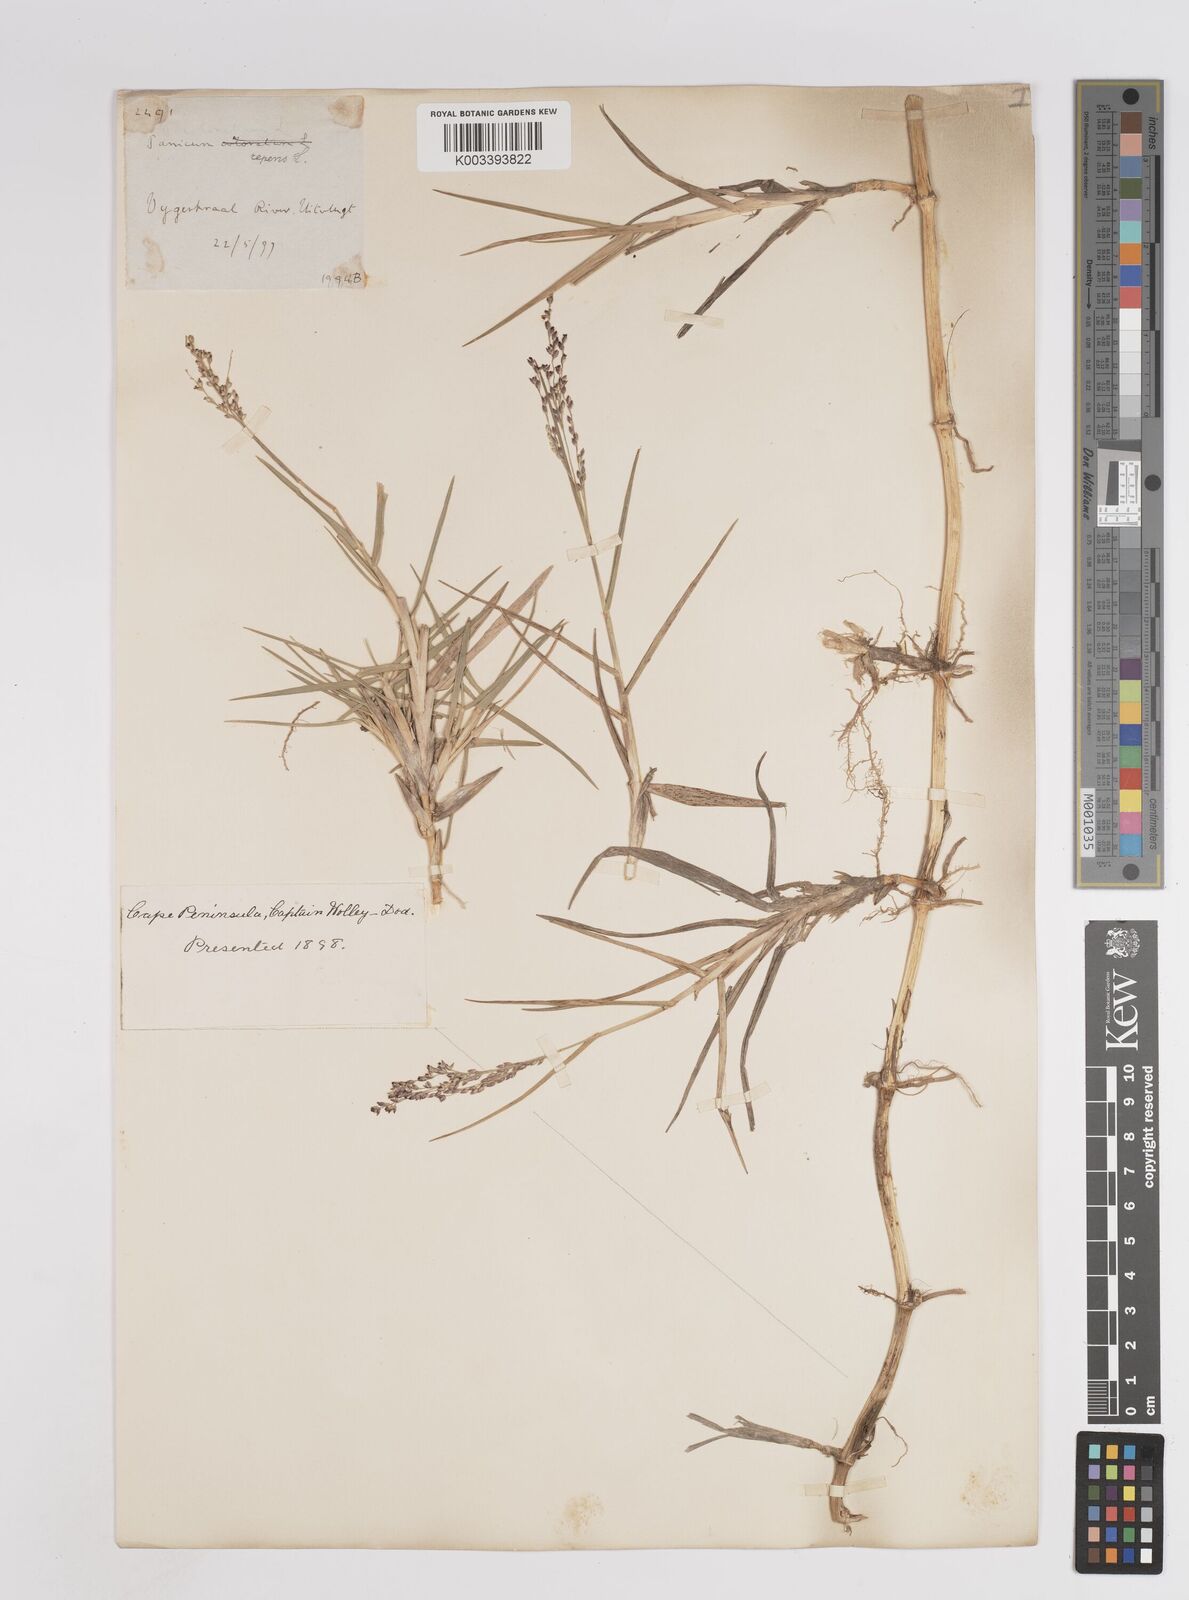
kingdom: Plantae
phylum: Tracheophyta
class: Liliopsida
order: Poales
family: Poaceae
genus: Panicum
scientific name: Panicum repens
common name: Torpedo grass
